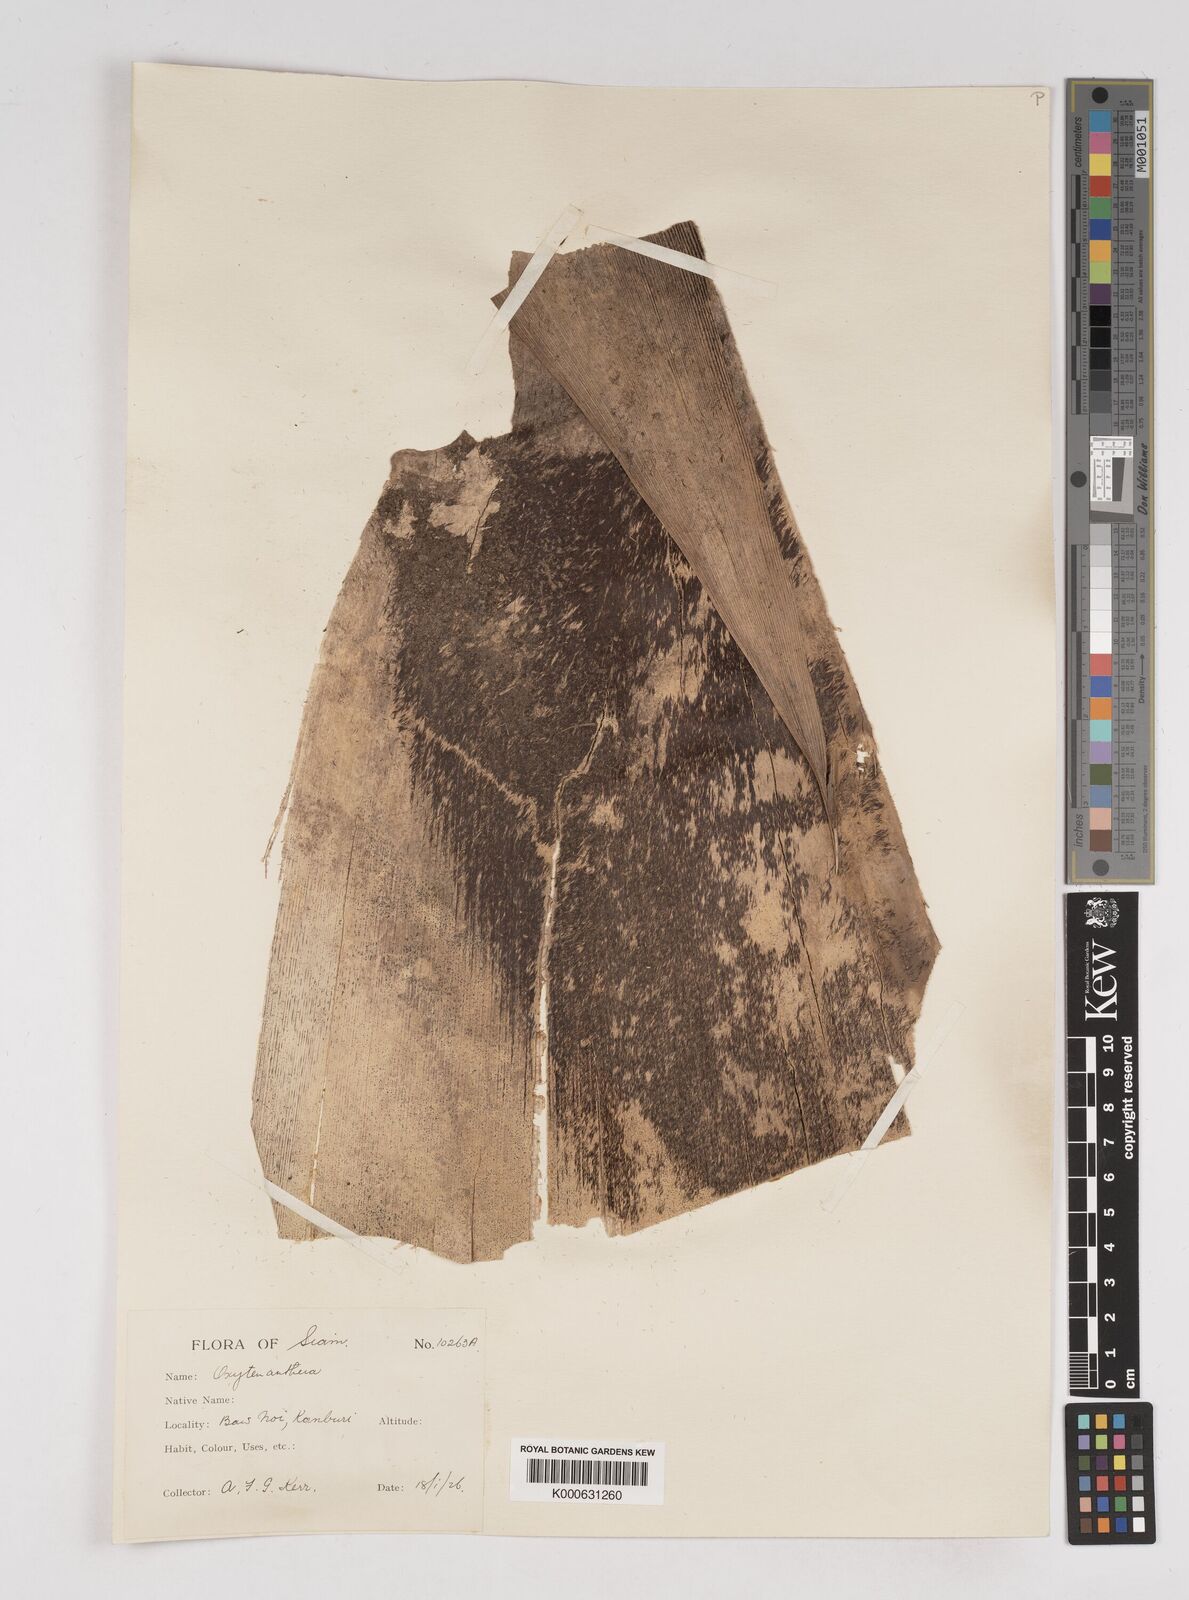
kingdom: Plantae
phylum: Tracheophyta
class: Liliopsida
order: Poales
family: Poaceae
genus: Gigantochloa
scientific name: Gigantochloa
